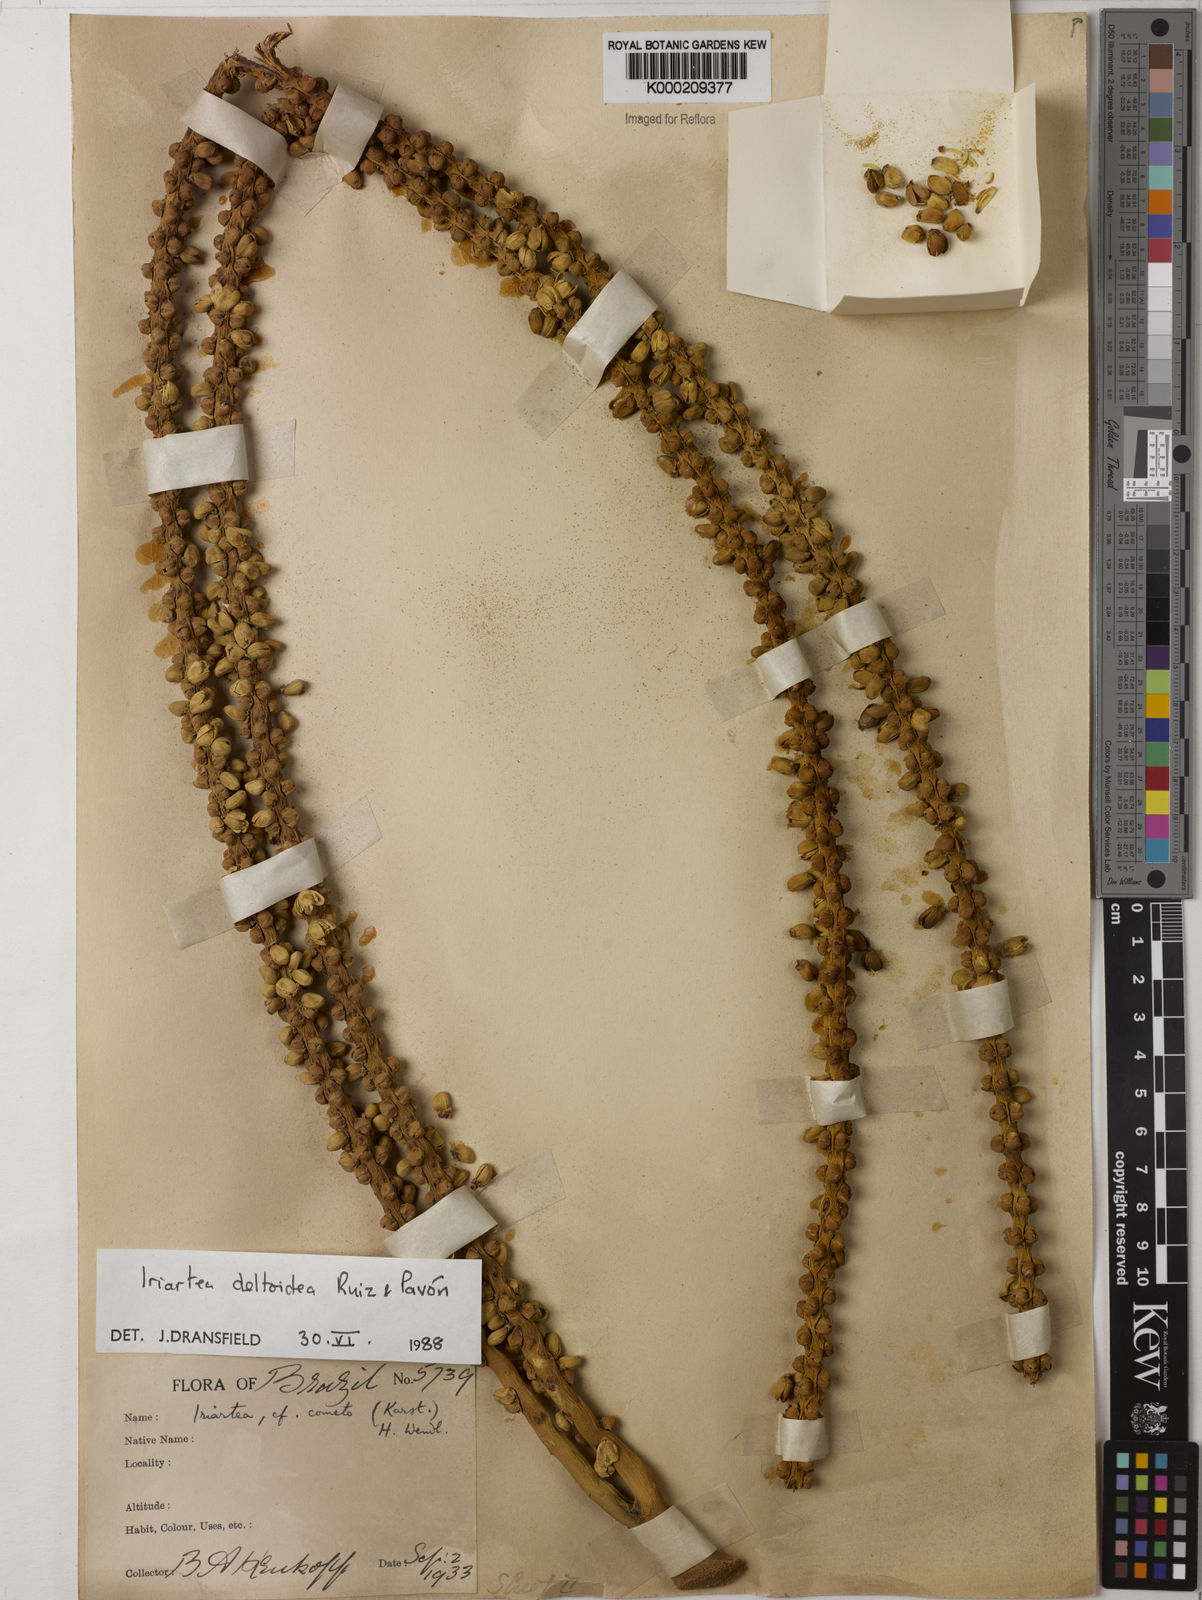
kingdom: Plantae
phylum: Tracheophyta
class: Liliopsida
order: Arecales
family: Arecaceae
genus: Iriartea
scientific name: Iriartea deltoidea
